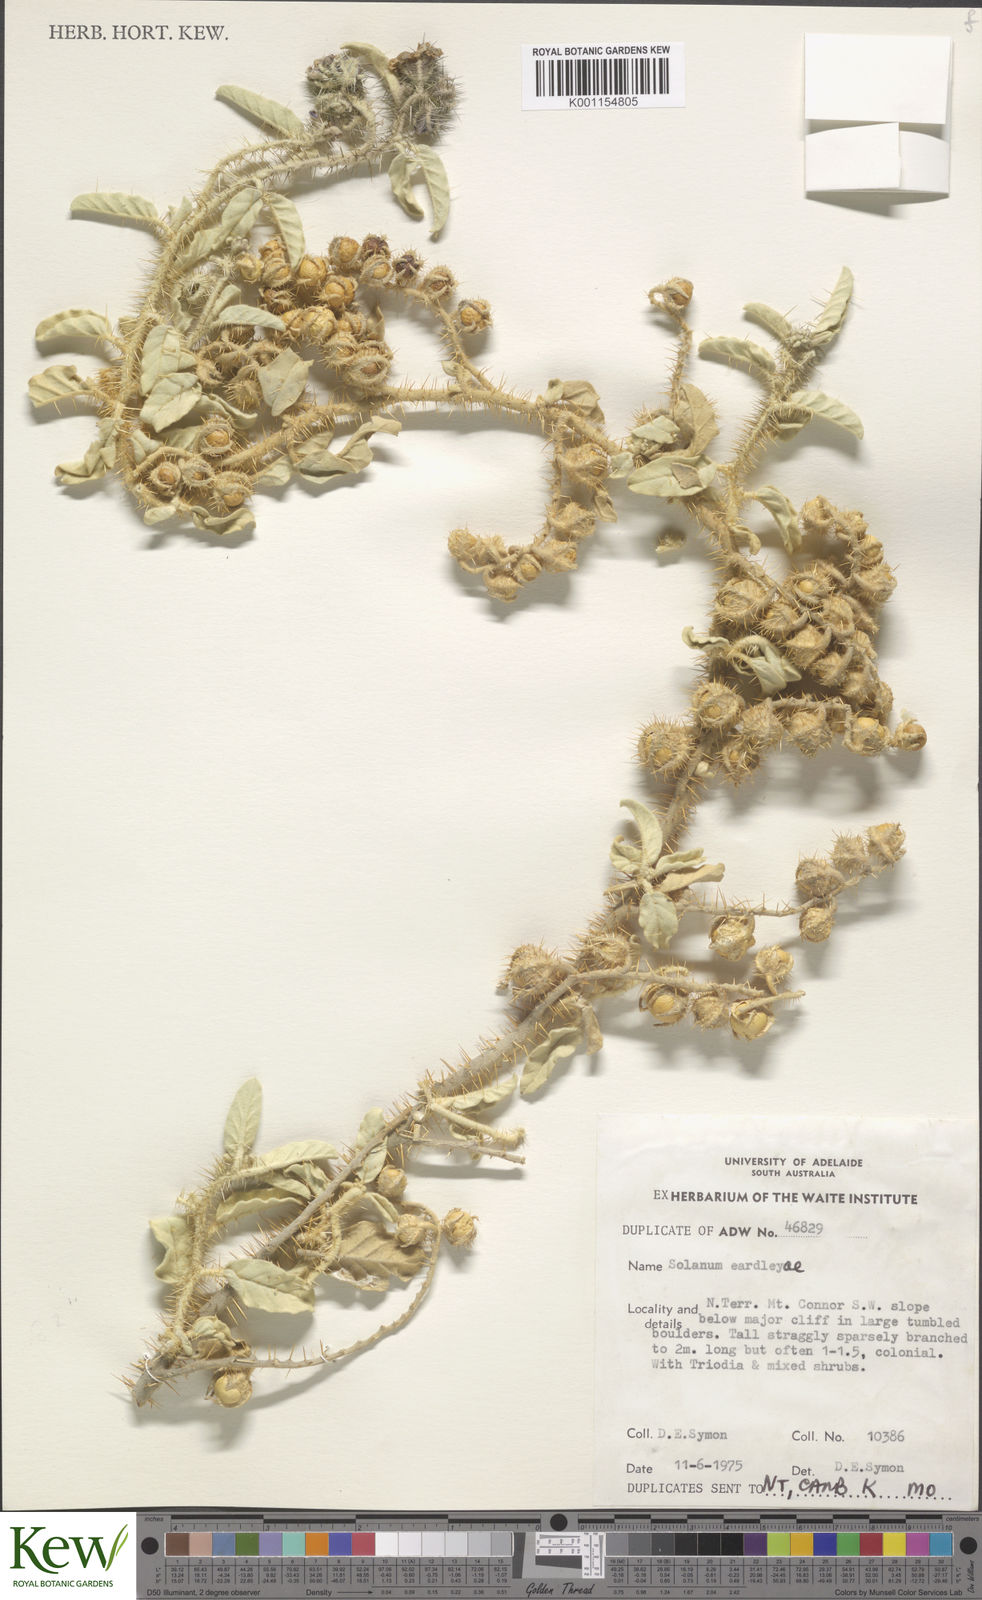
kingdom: Plantae
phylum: Tracheophyta
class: Magnoliopsida
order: Solanales
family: Solanaceae
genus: Solanum
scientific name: Solanum eardleyae
